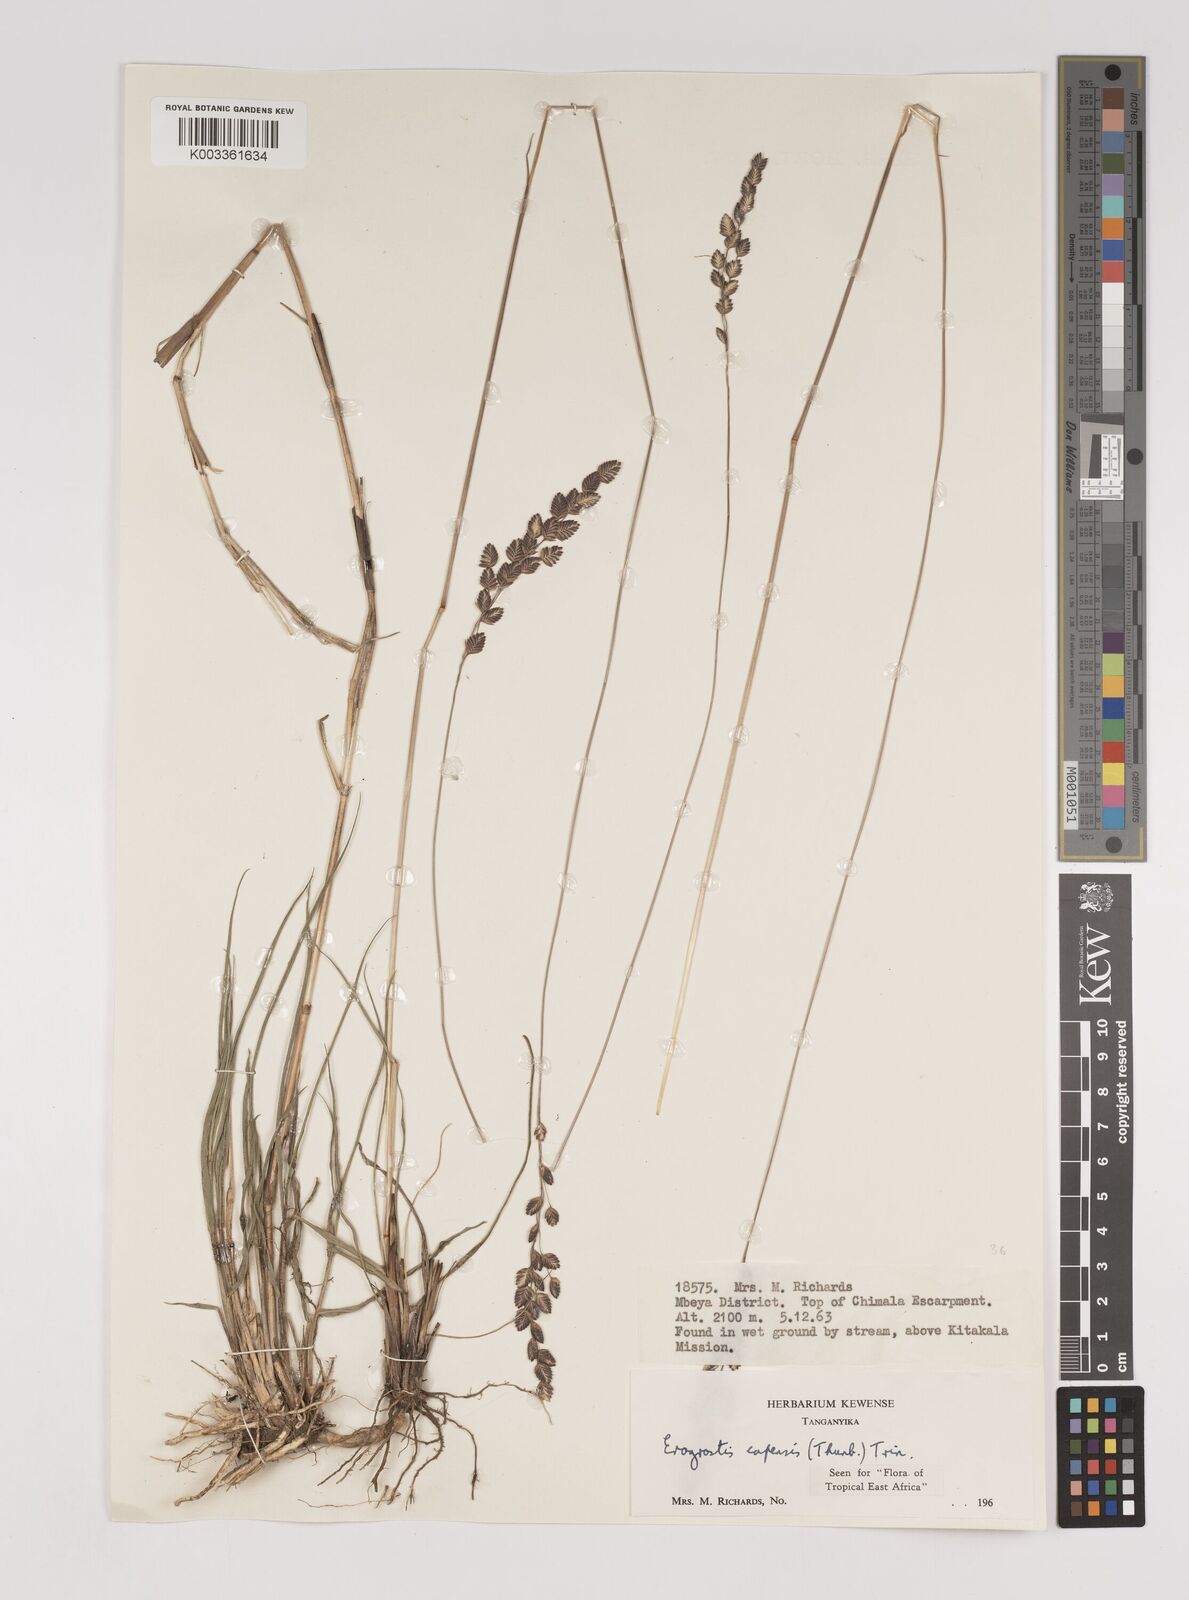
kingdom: Plantae
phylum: Tracheophyta
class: Liliopsida
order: Poales
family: Poaceae
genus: Eragrostis
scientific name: Eragrostis capensis
